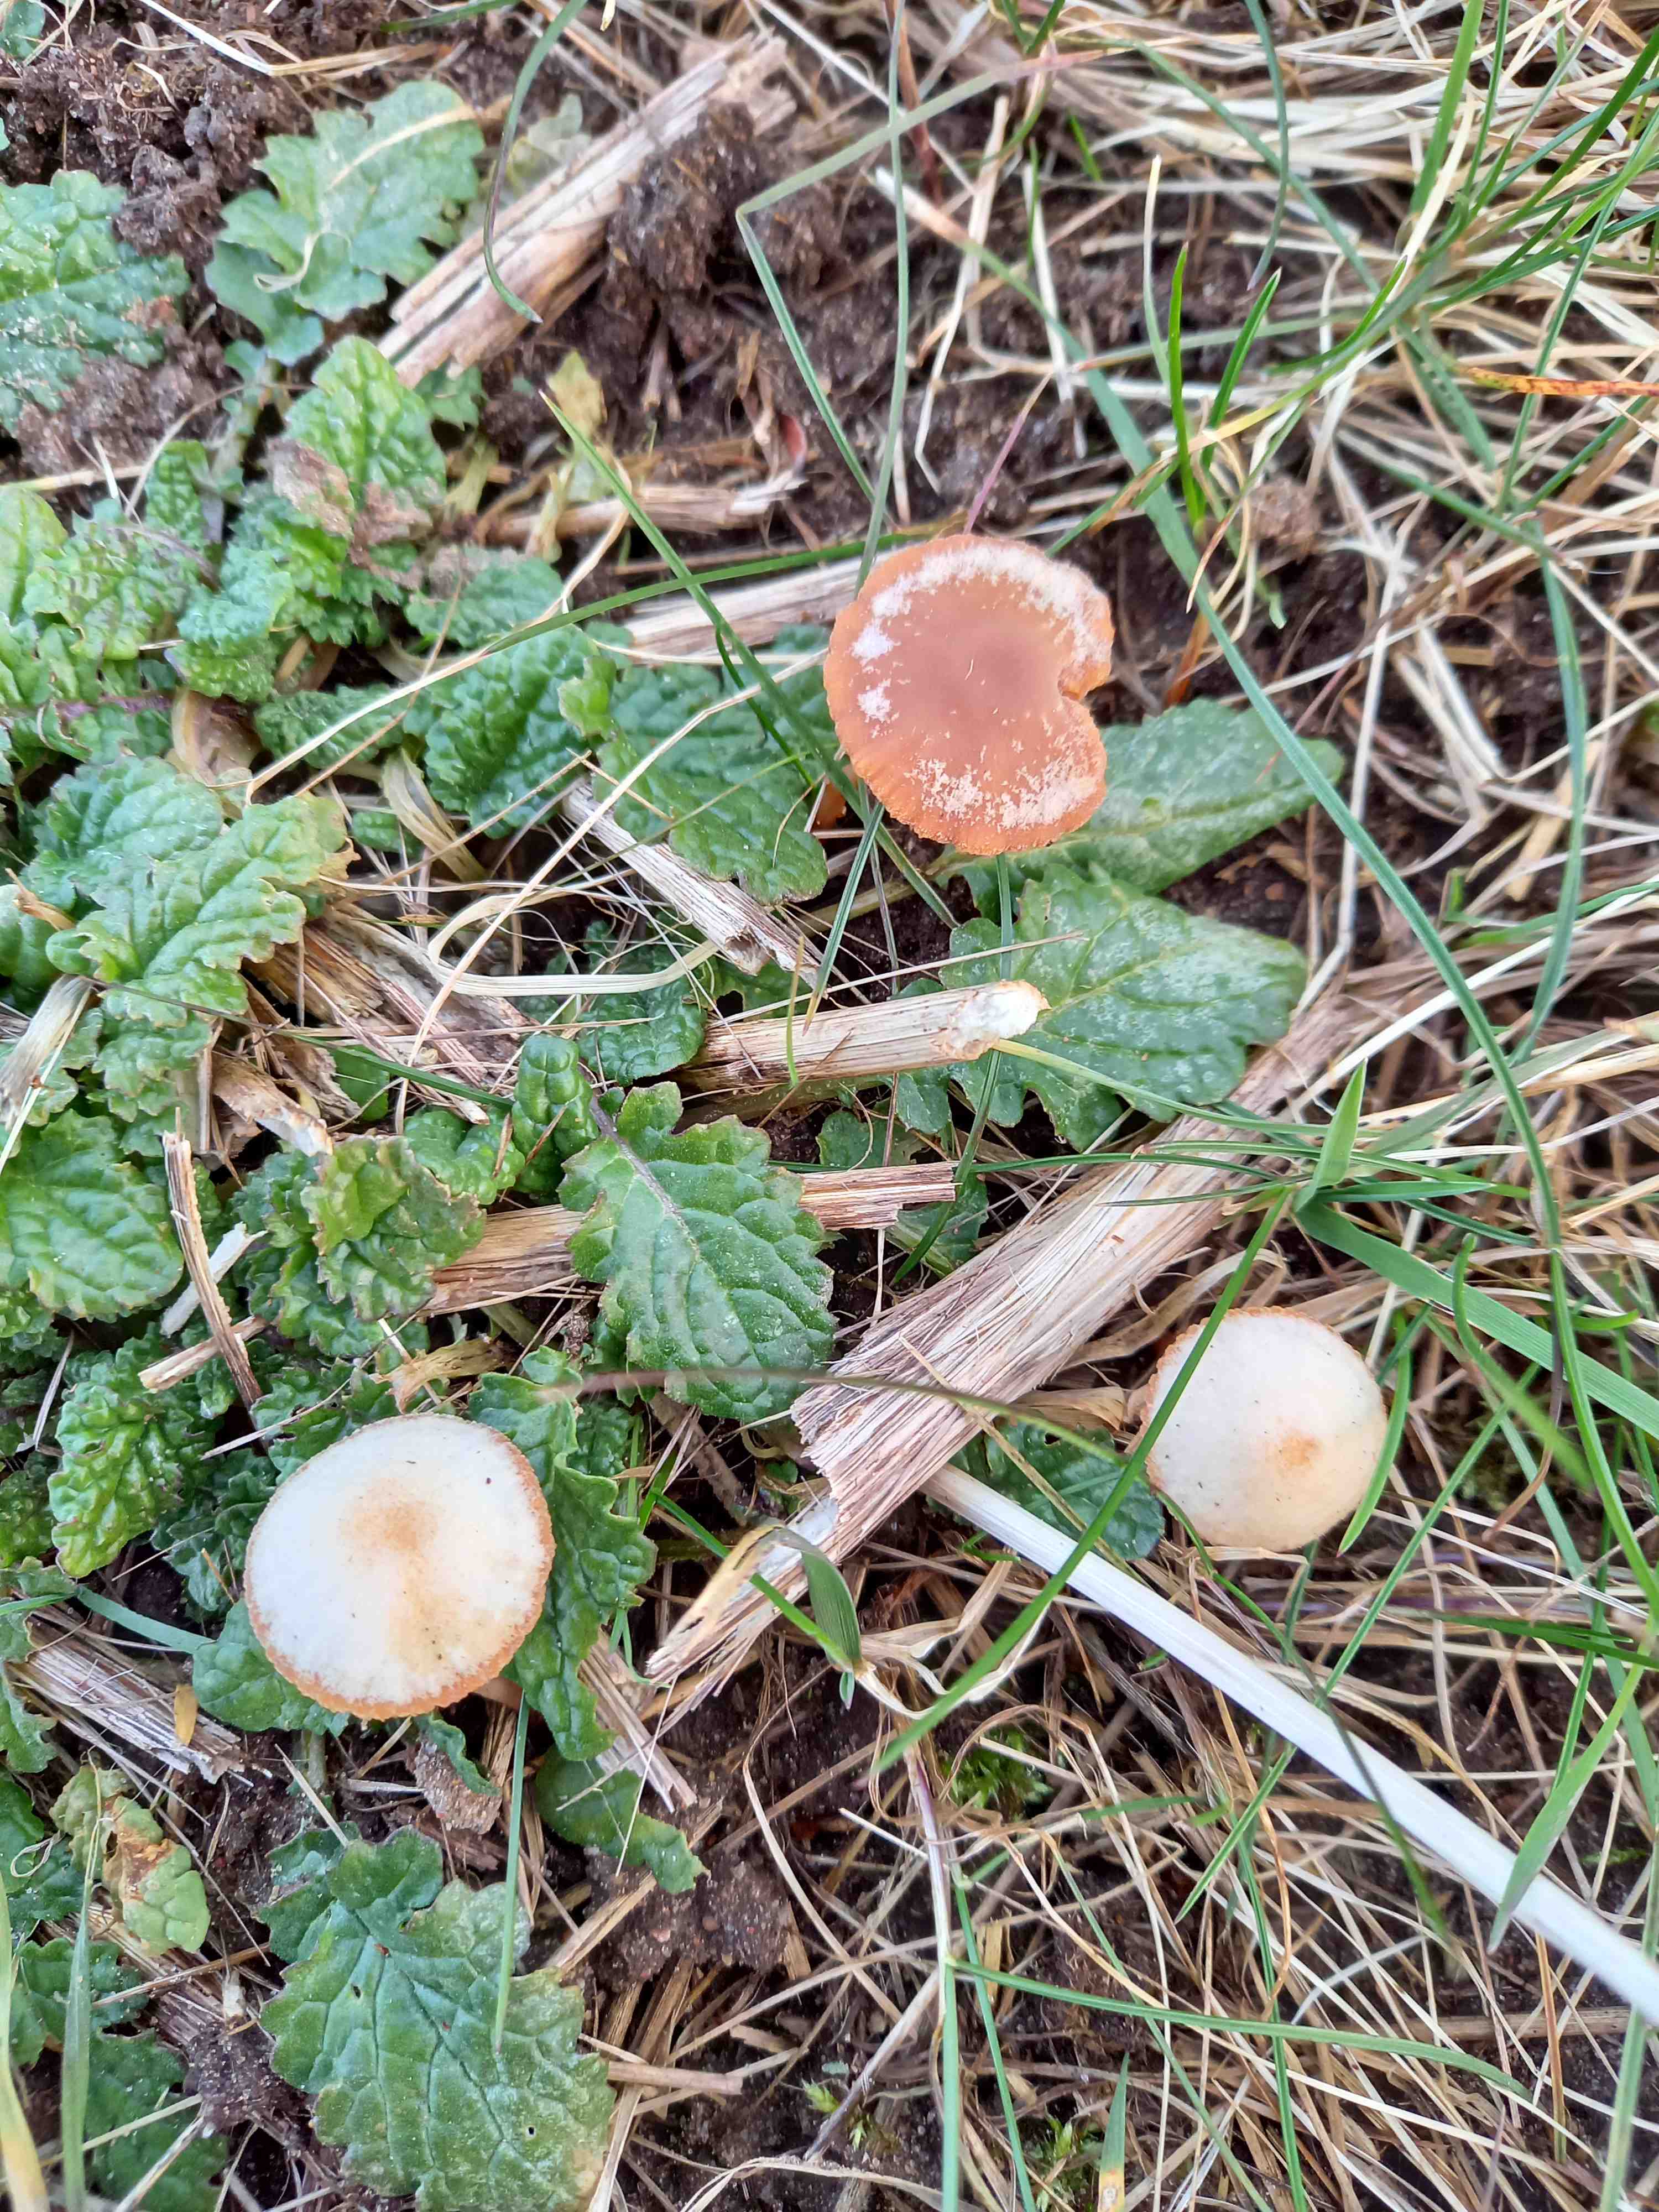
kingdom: Fungi
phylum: Basidiomycota
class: Agaricomycetes
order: Agaricales
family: Tubariaceae
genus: Tubaria
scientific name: Tubaria furfuracea
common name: kliddet fnughat
